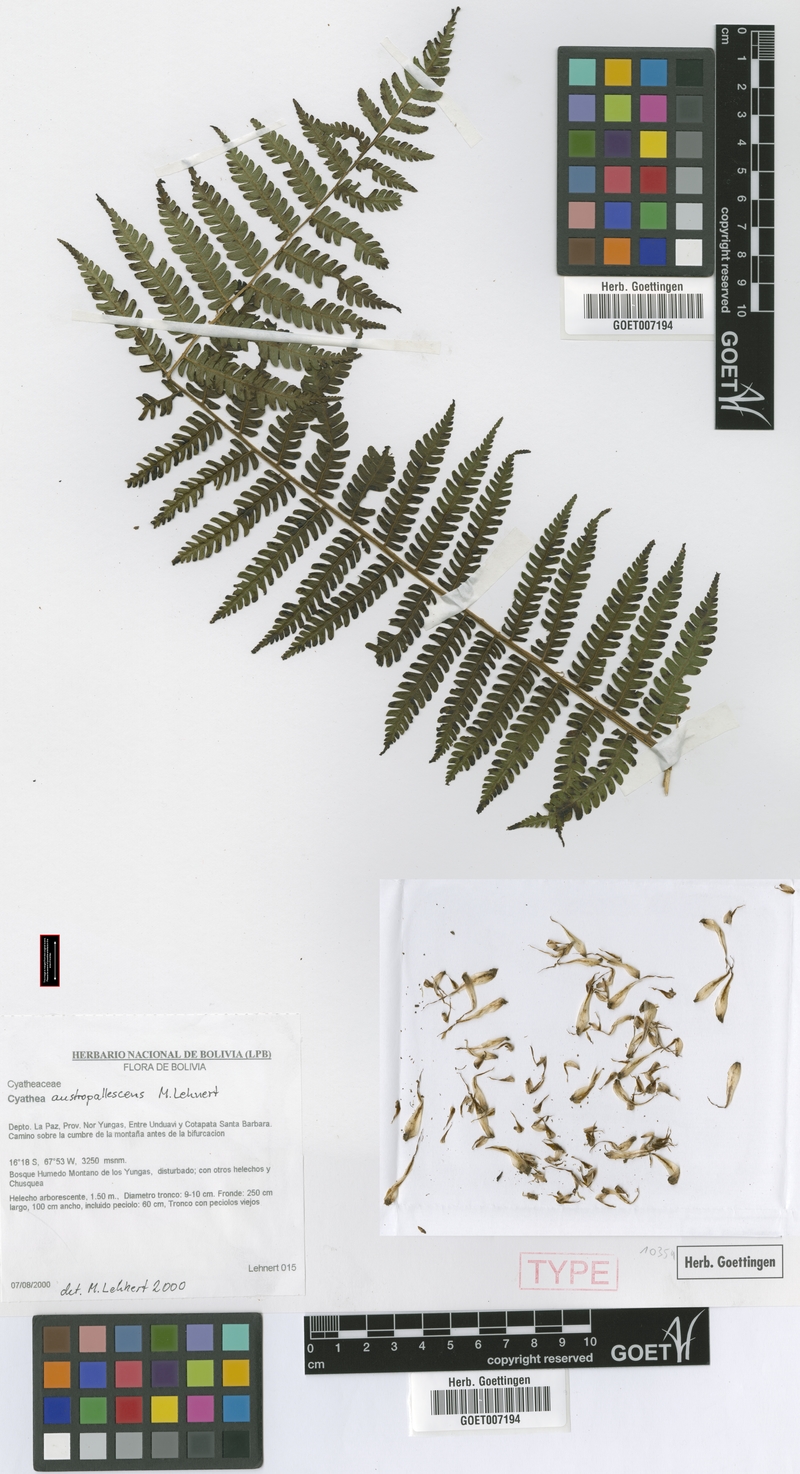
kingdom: Plantae
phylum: Tracheophyta
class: Polypodiopsida
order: Cyatheales
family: Cyatheaceae
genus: Cyathea
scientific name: Cyathea austropallescens
